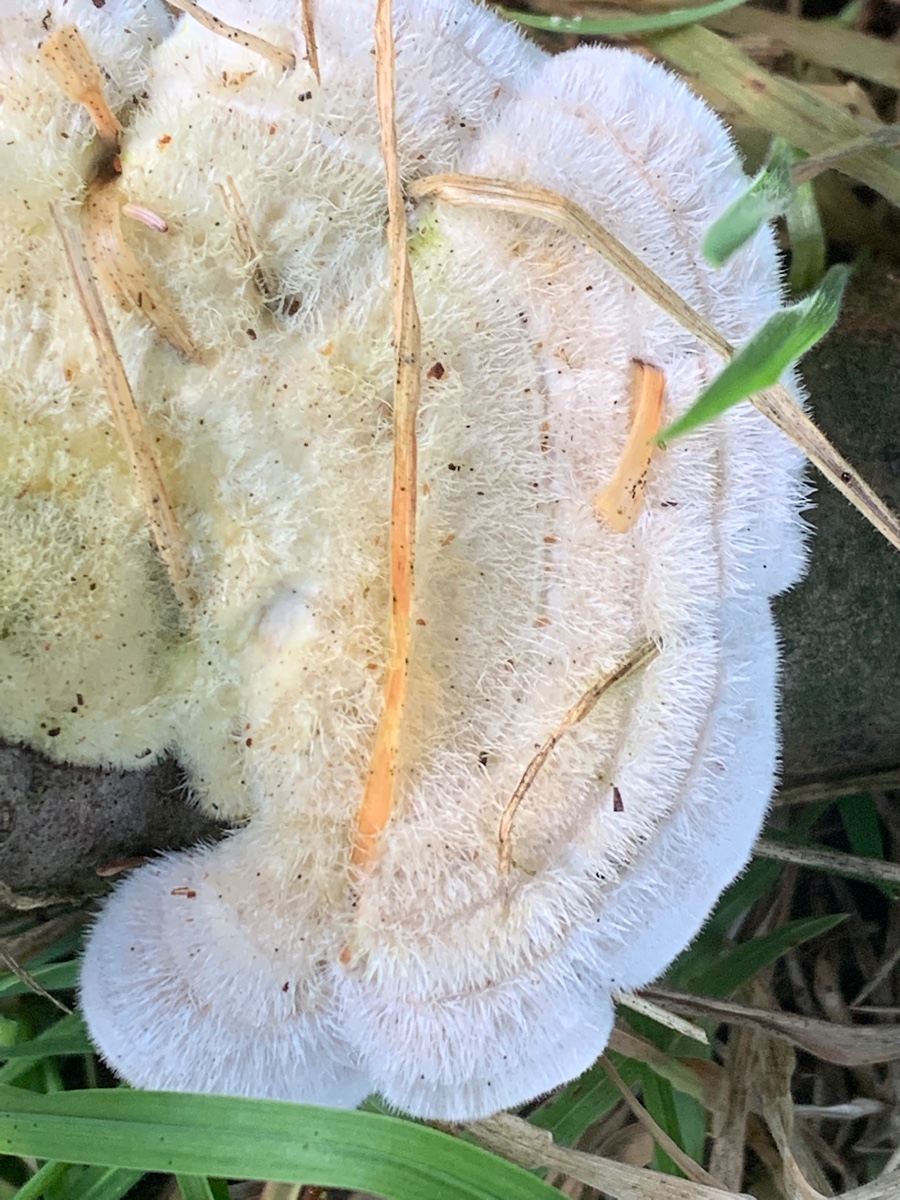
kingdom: Fungi
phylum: Basidiomycota
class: Agaricomycetes
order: Polyporales
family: Polyporaceae
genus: Trametes
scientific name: Trametes hirsuta
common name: håret læderporesvamp
